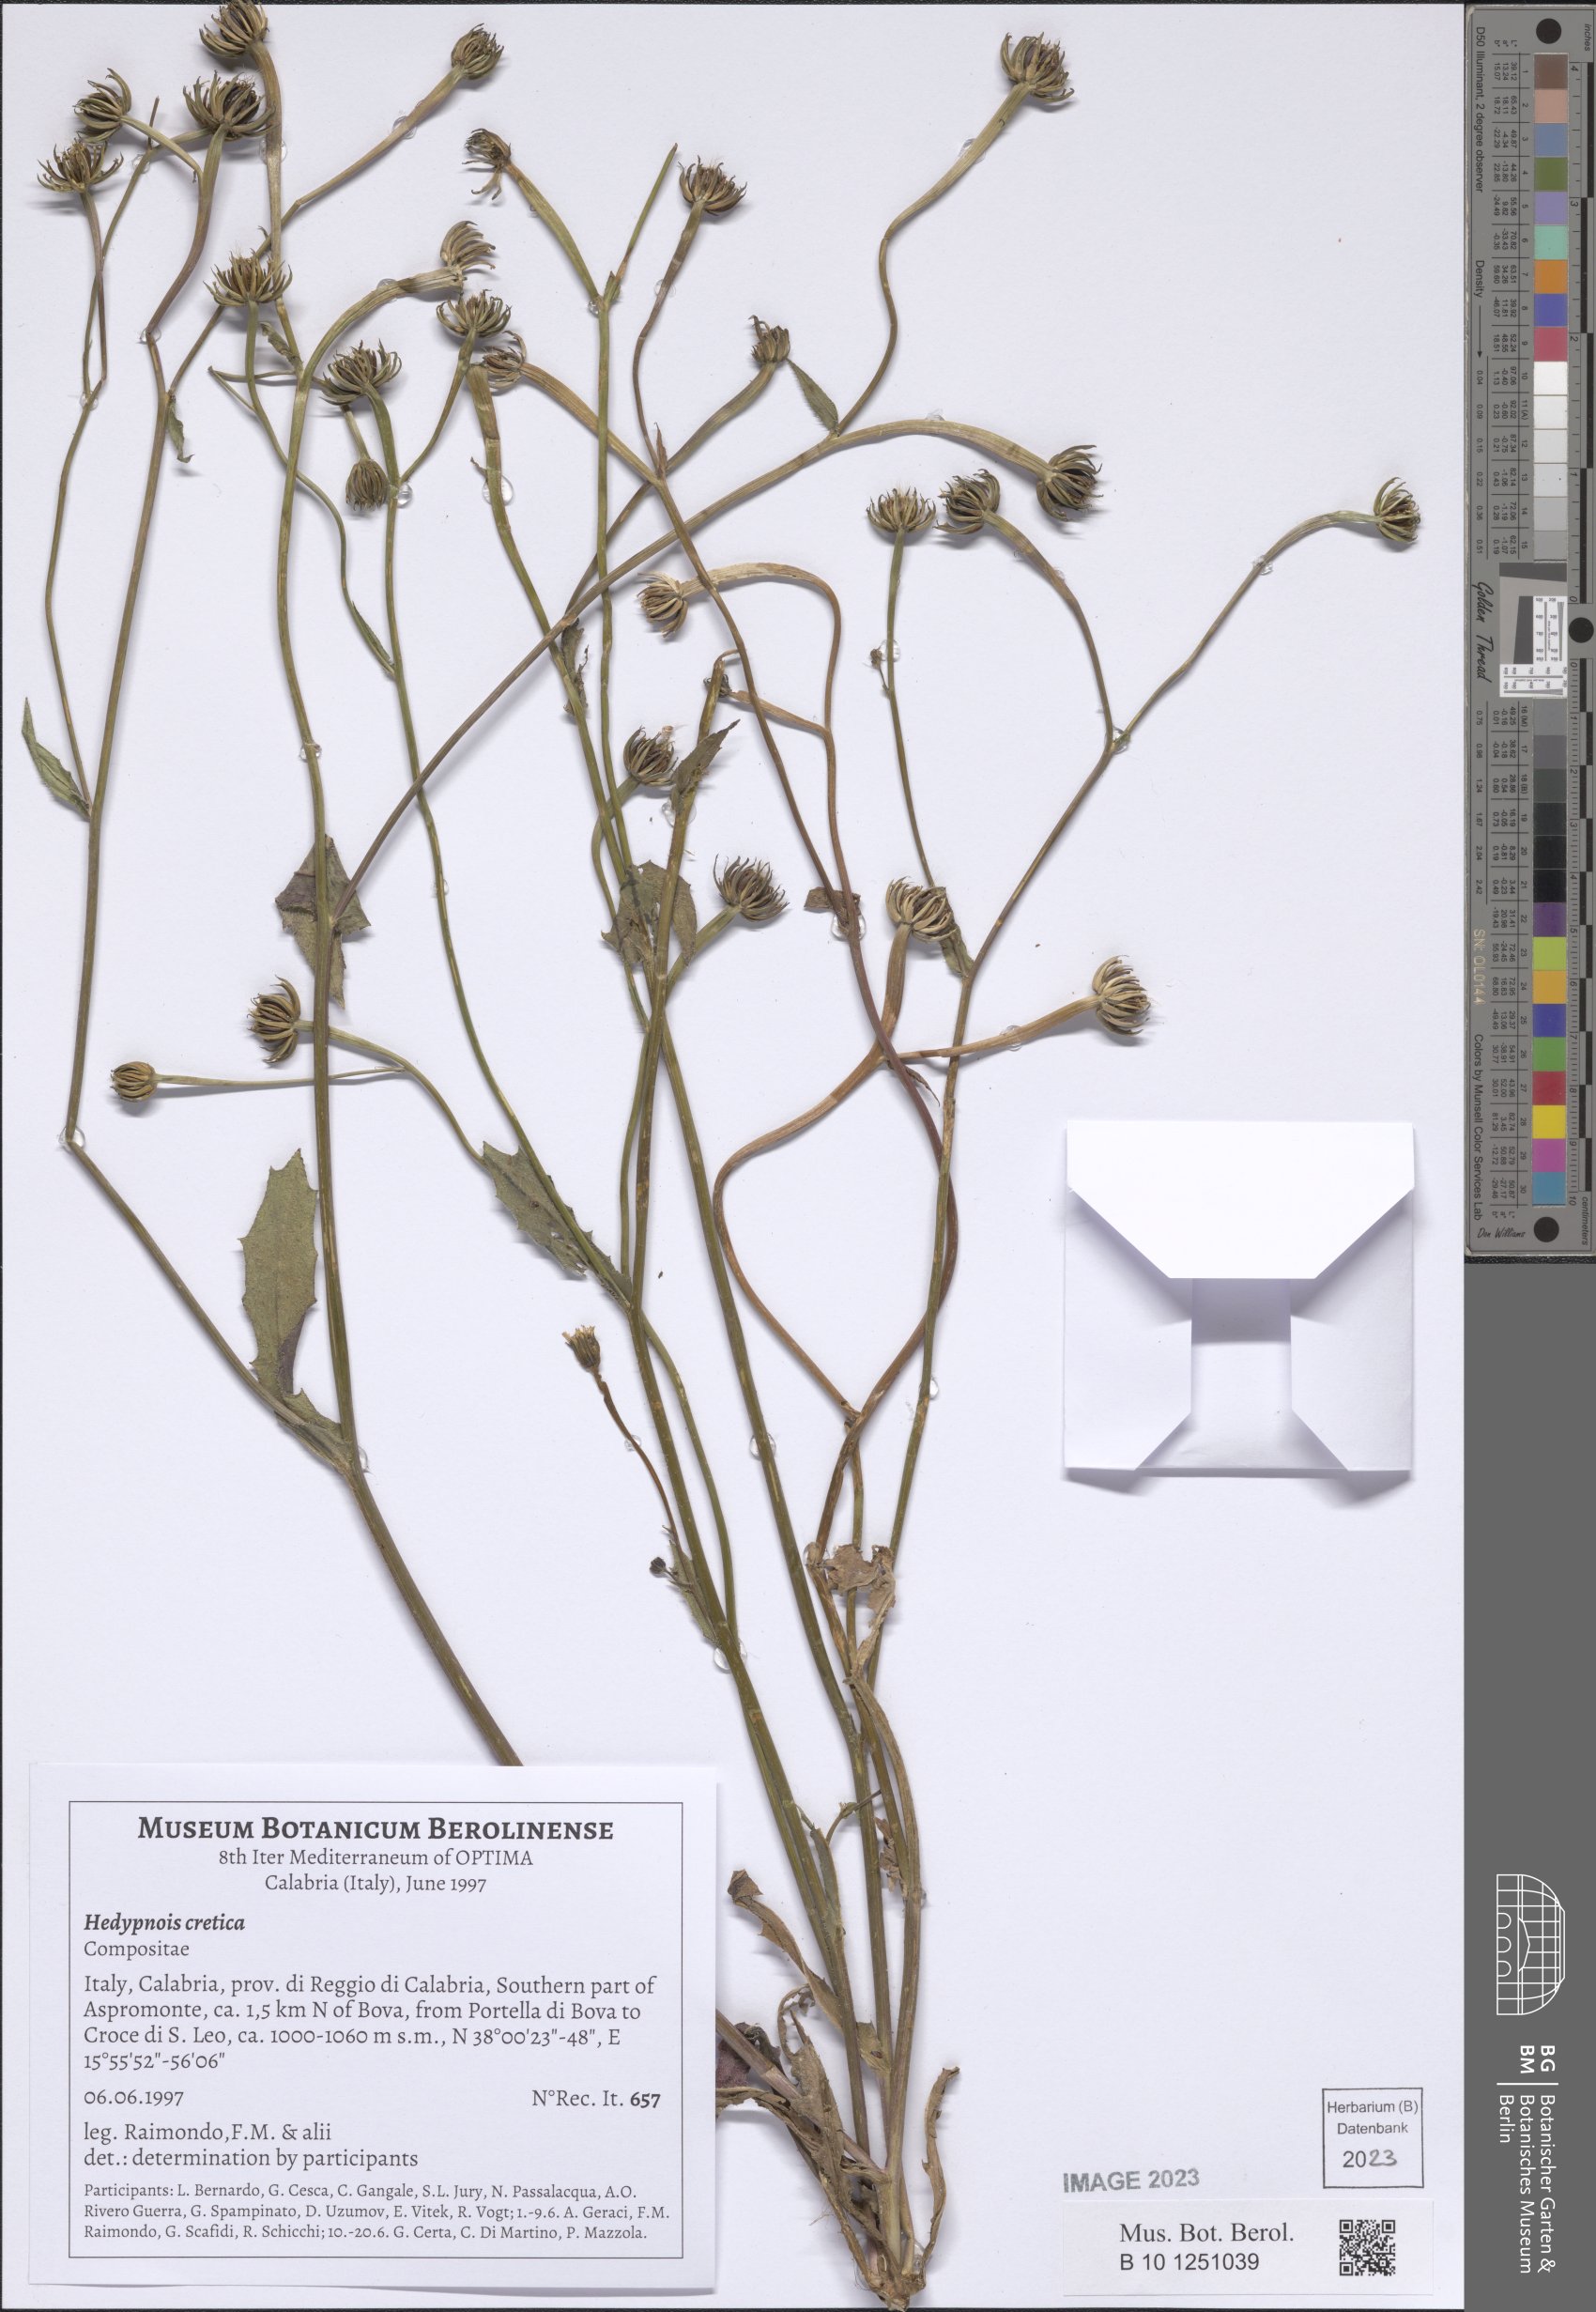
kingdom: Plantae
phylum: Tracheophyta
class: Magnoliopsida
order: Asterales
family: Asteraceae
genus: Hedypnois
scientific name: Hedypnois cretica
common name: Scaly hawkbit
